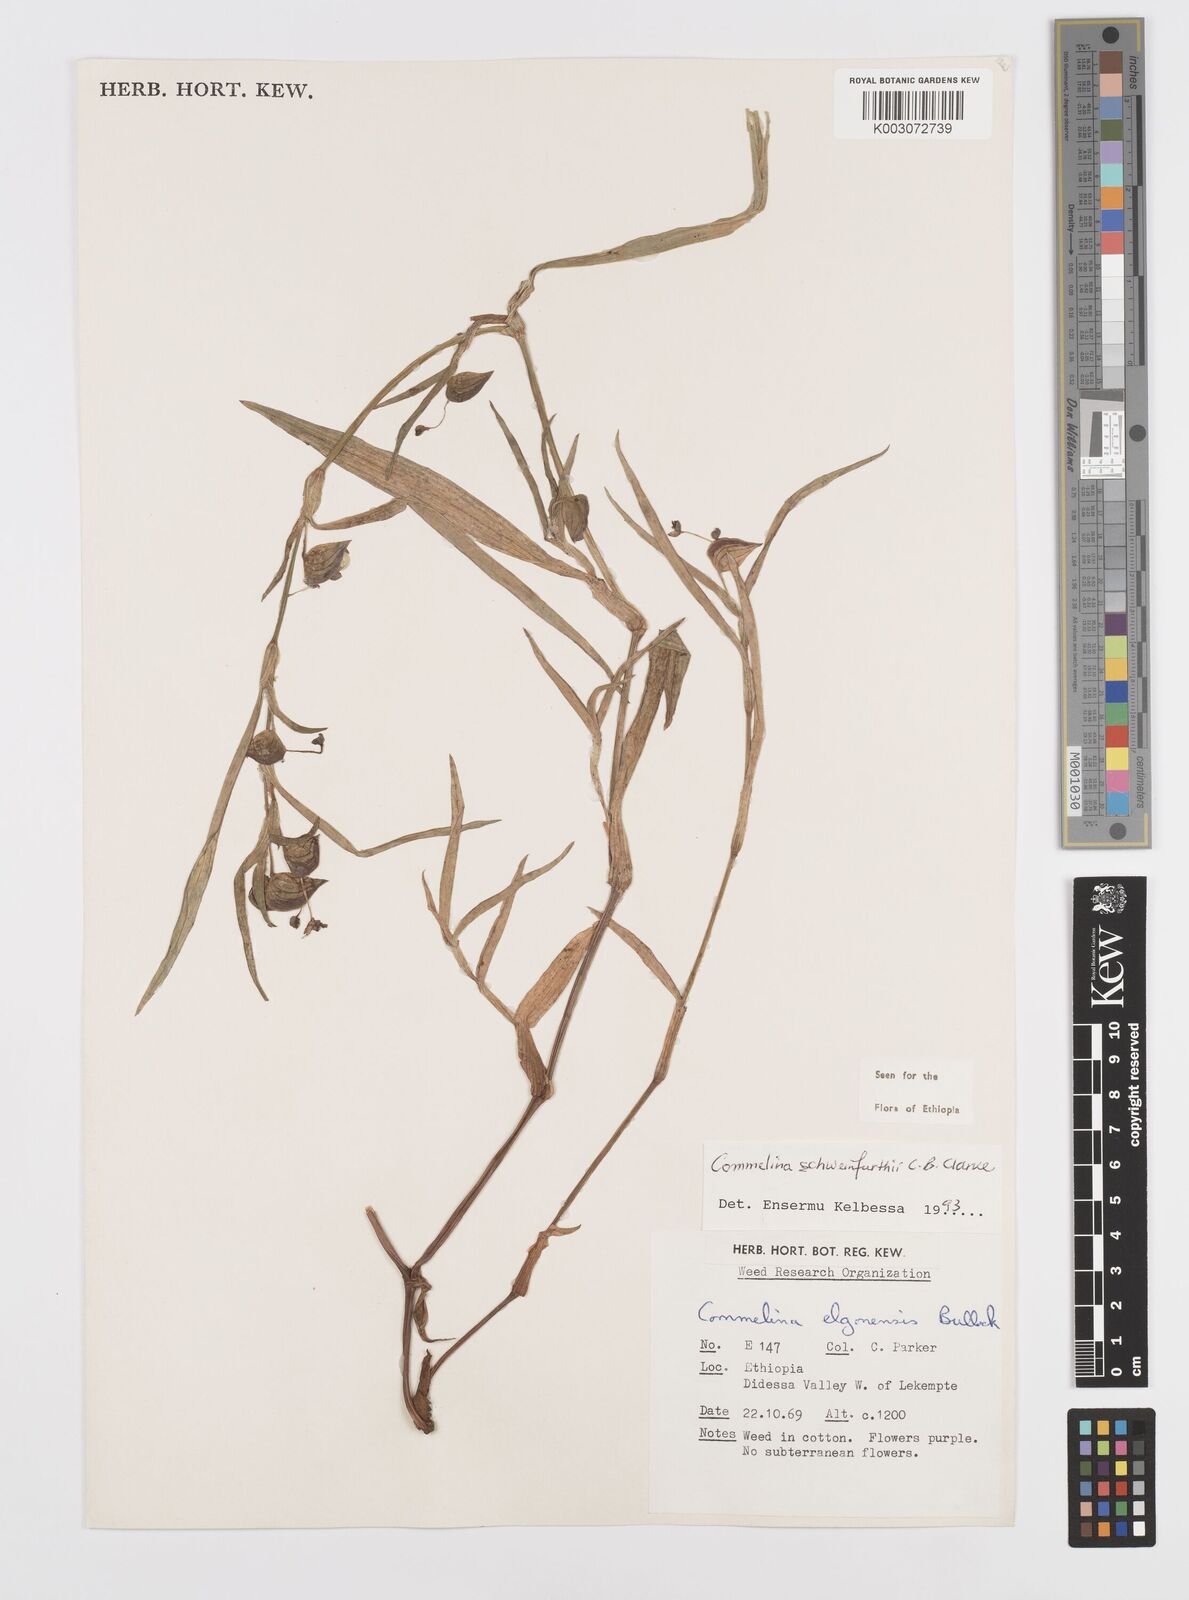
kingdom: Plantae
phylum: Tracheophyta
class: Liliopsida
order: Commelinales
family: Commelinaceae
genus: Commelina
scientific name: Commelina schweinfurthii
